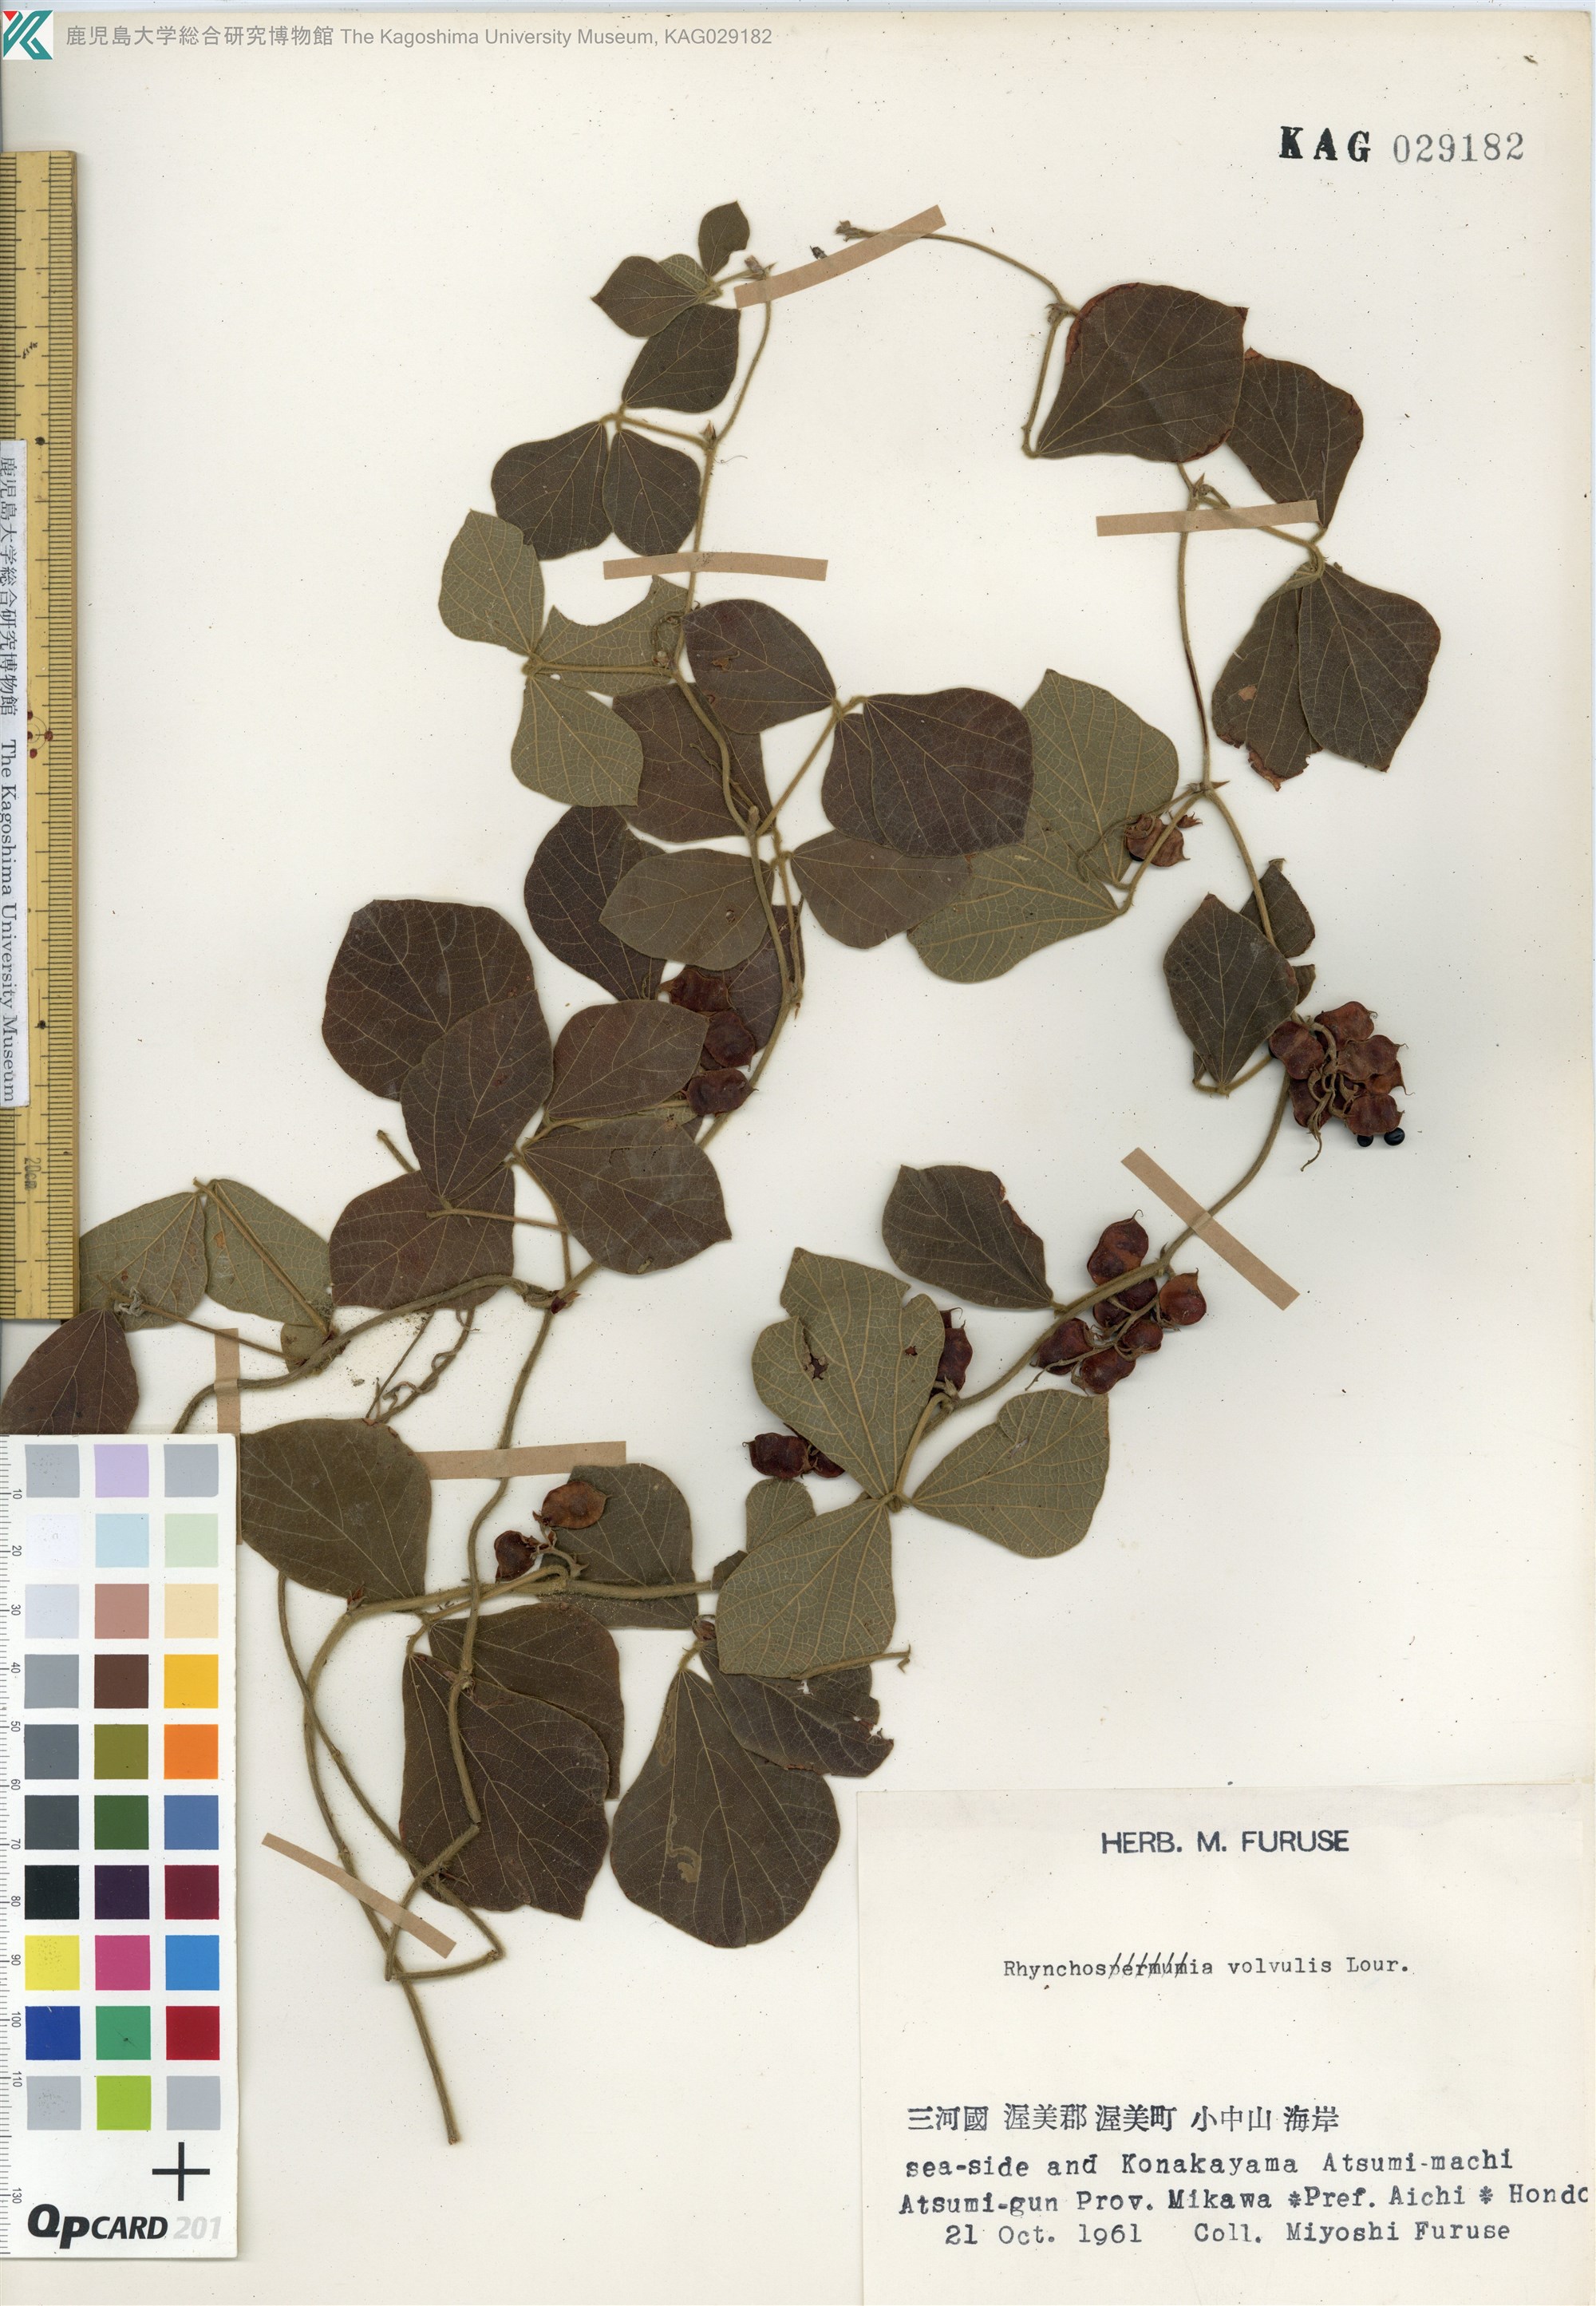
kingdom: Plantae
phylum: Tracheophyta
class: Magnoliopsida
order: Fabales
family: Fabaceae
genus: Rhynchosia
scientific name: Rhynchosia volubilis
